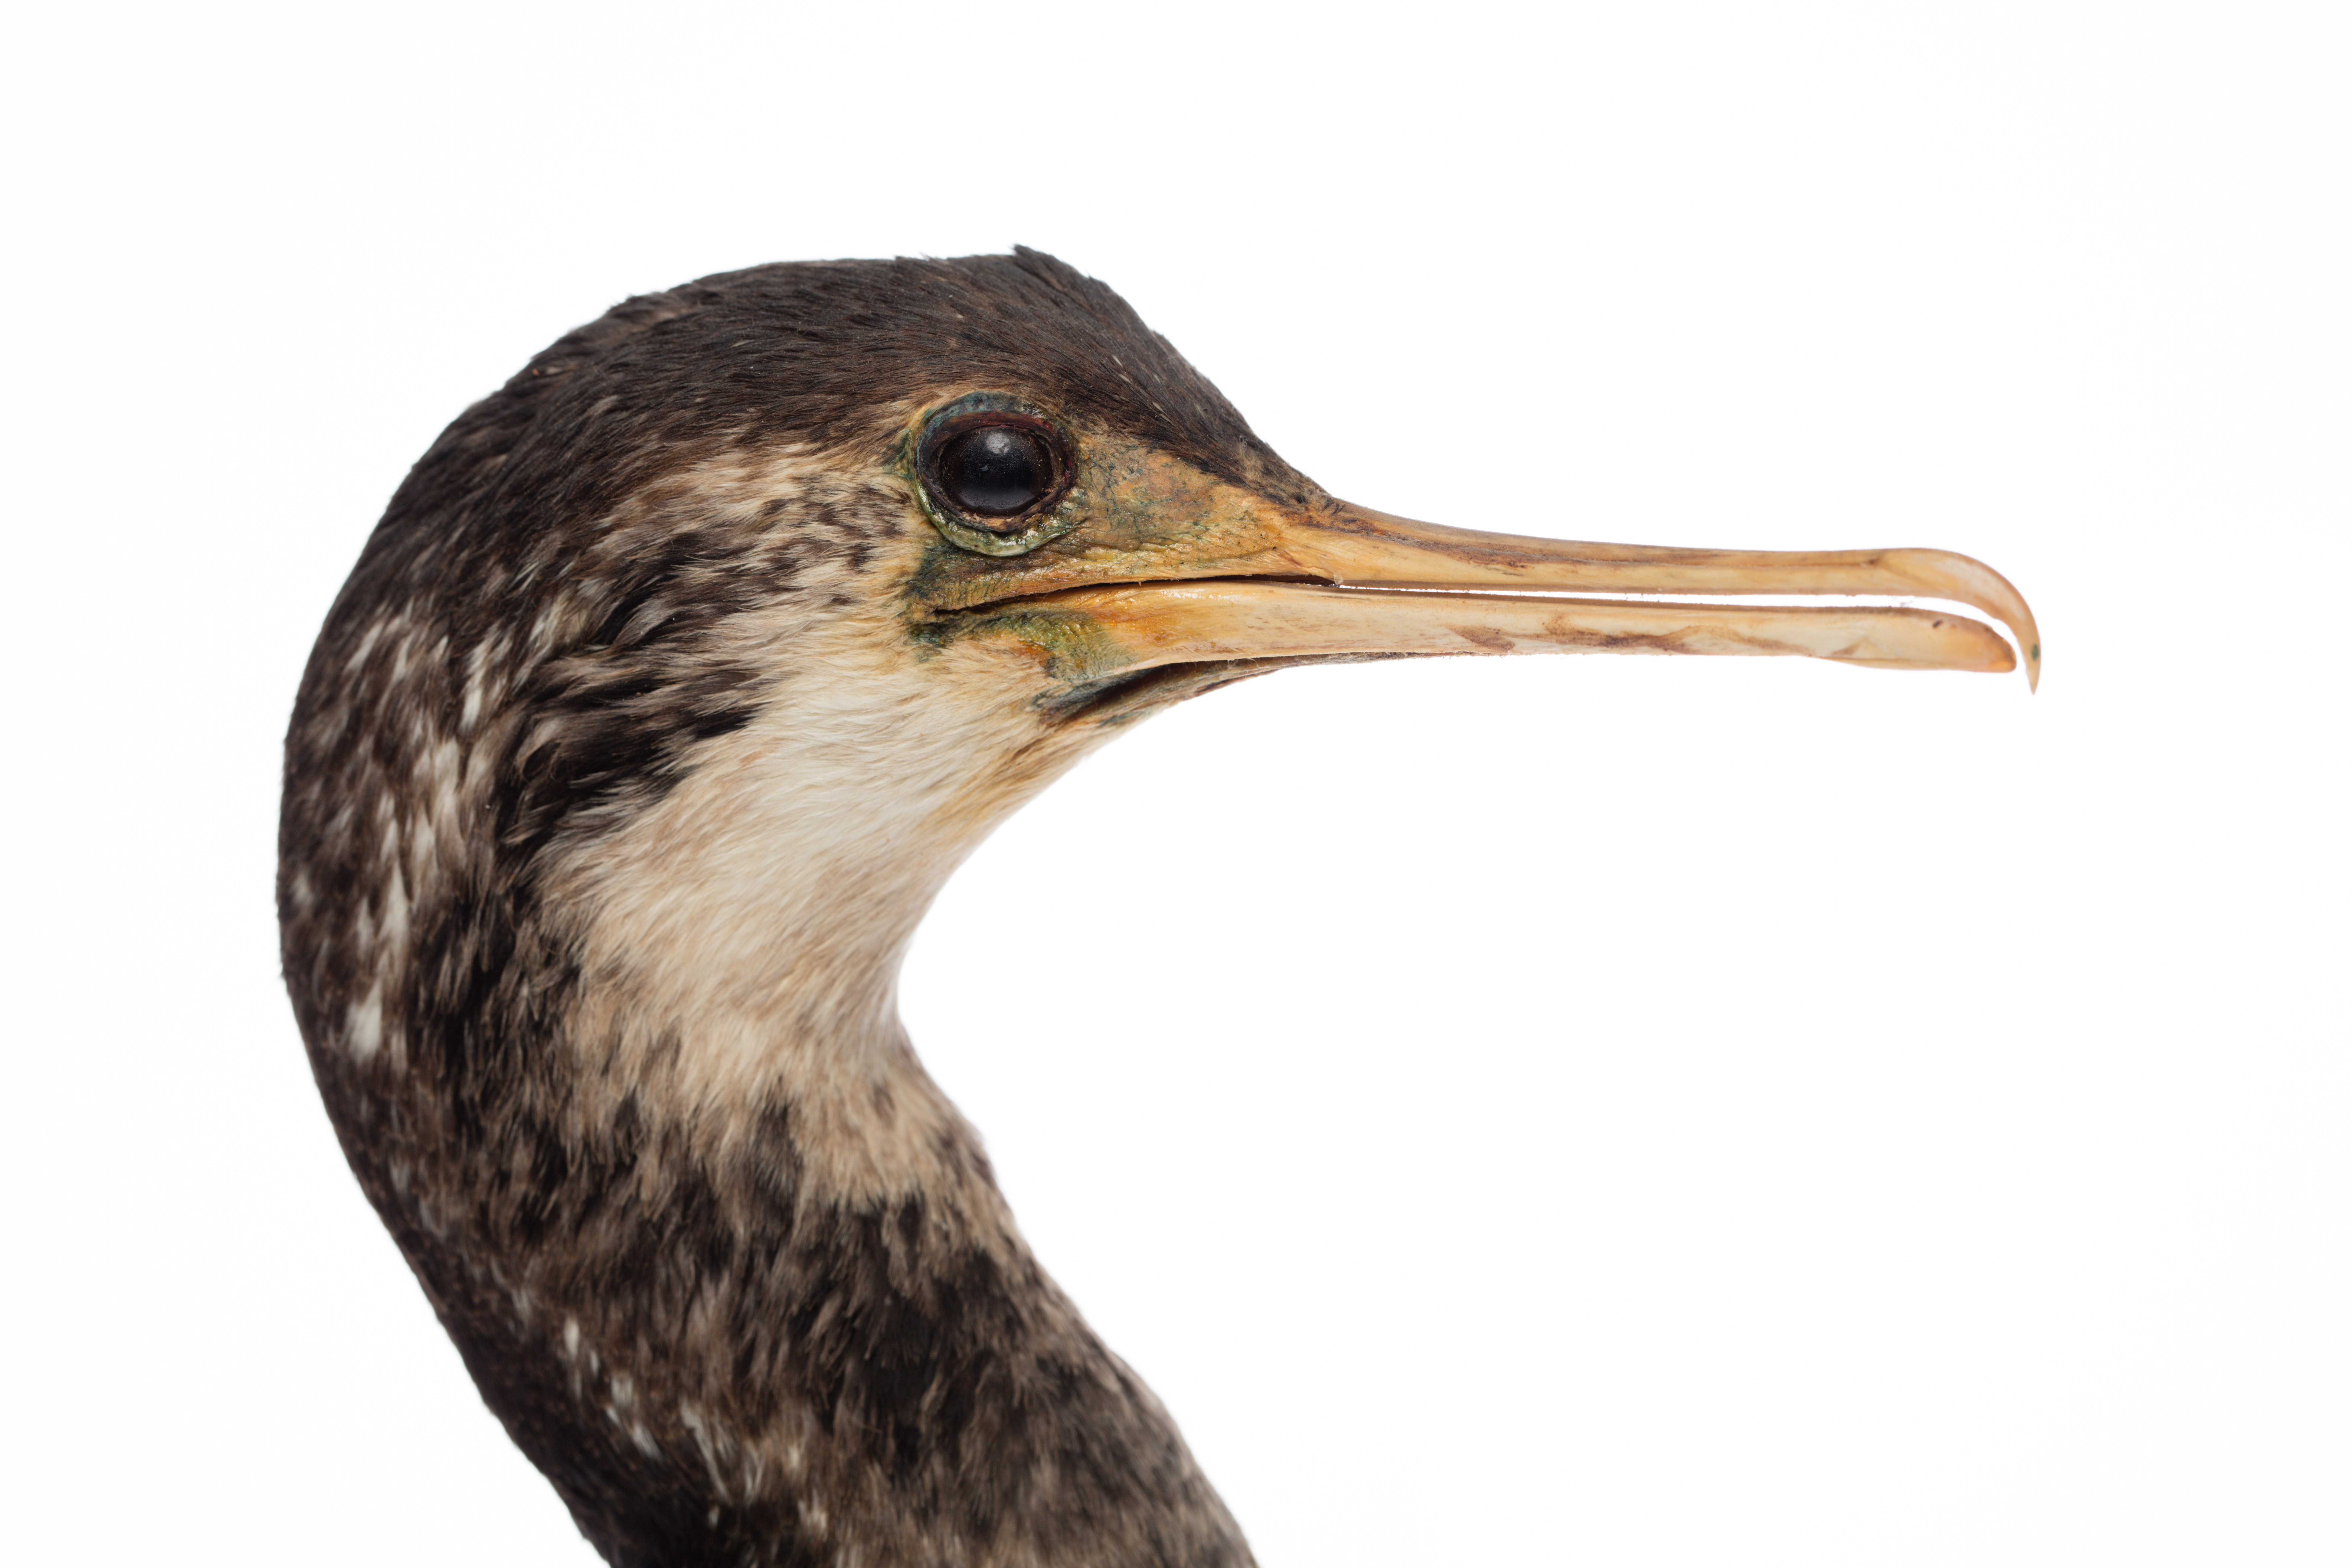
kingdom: Animalia
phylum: Chordata
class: Aves
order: Suliformes
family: Phalacrocoracidae
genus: Phalacrocorax
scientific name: Phalacrocorax punctatus
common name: Spotted shag
